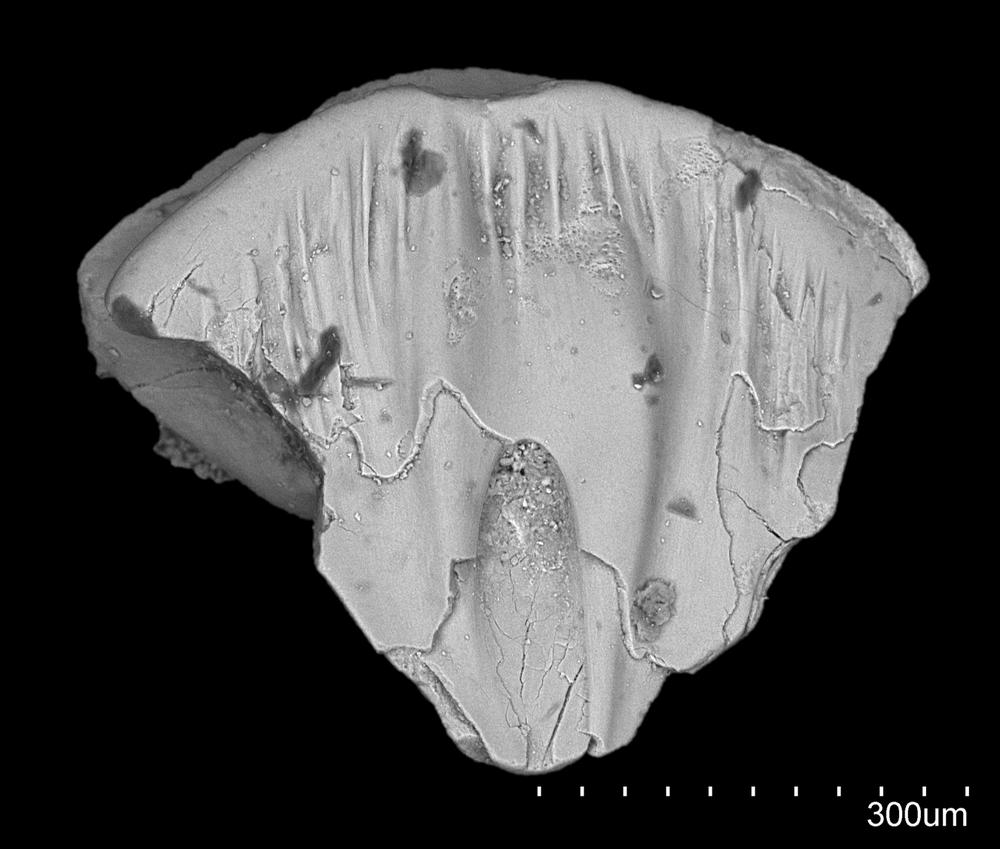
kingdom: Animalia
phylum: Chordata
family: Acanthodidae
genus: Cheiracanthus
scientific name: Cheiracanthus
